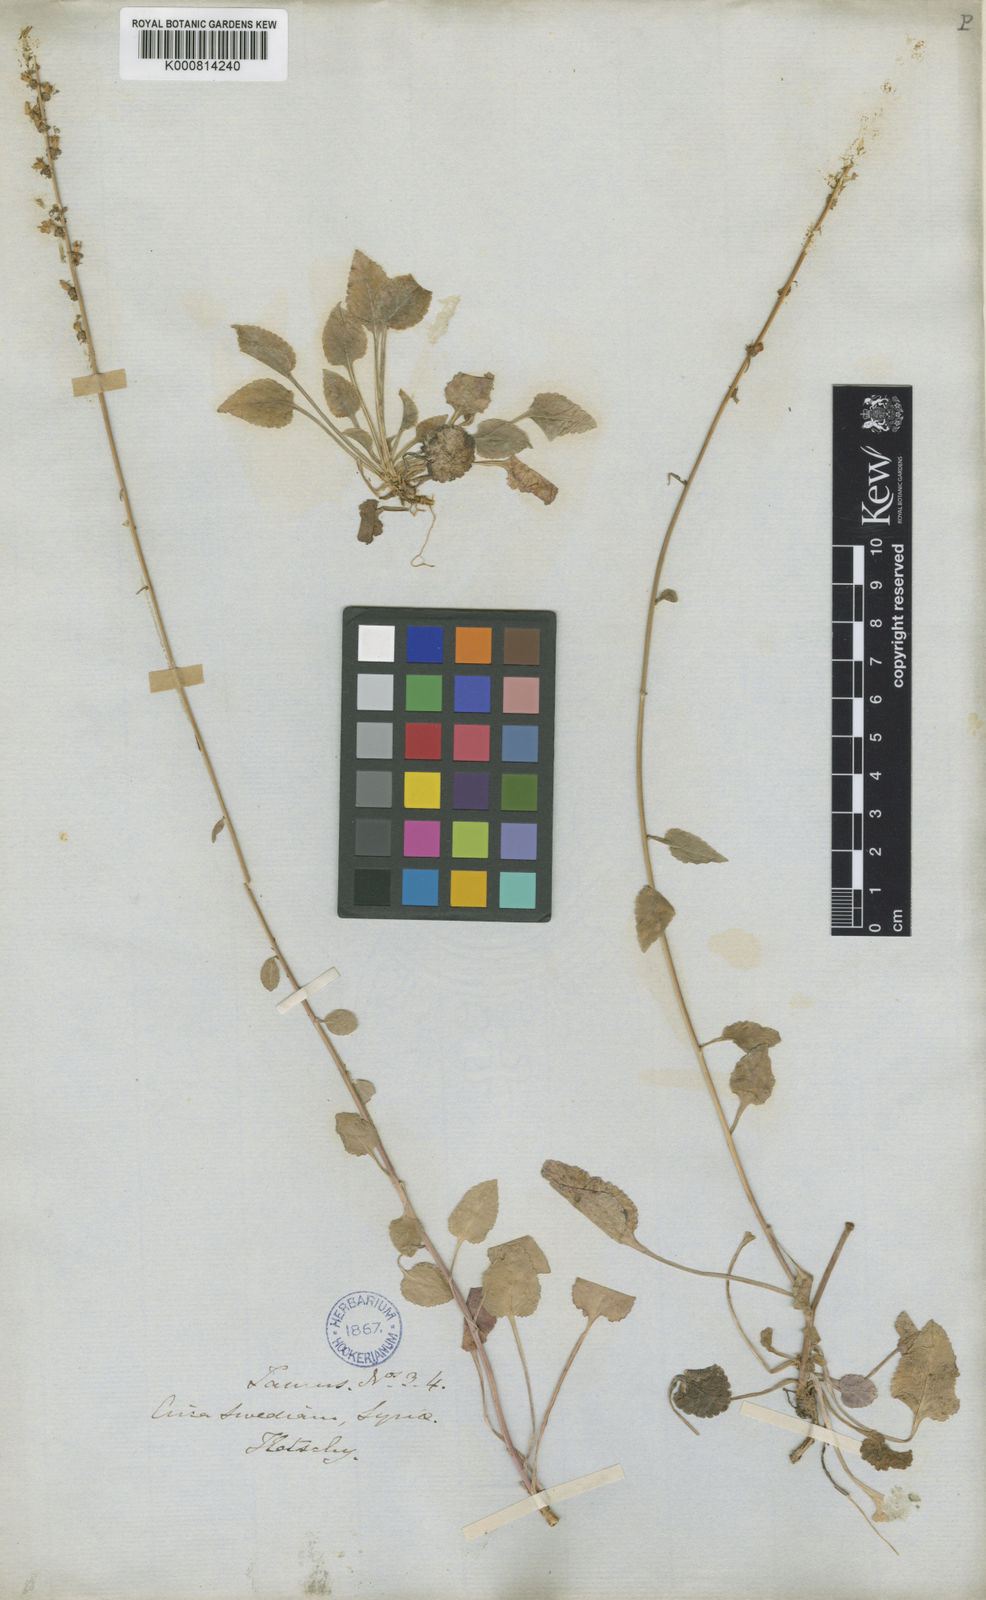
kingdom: Plantae
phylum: Tracheophyta
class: Magnoliopsida
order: Asterales
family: Campanulaceae
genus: Phyteuma
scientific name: Phyteuma
